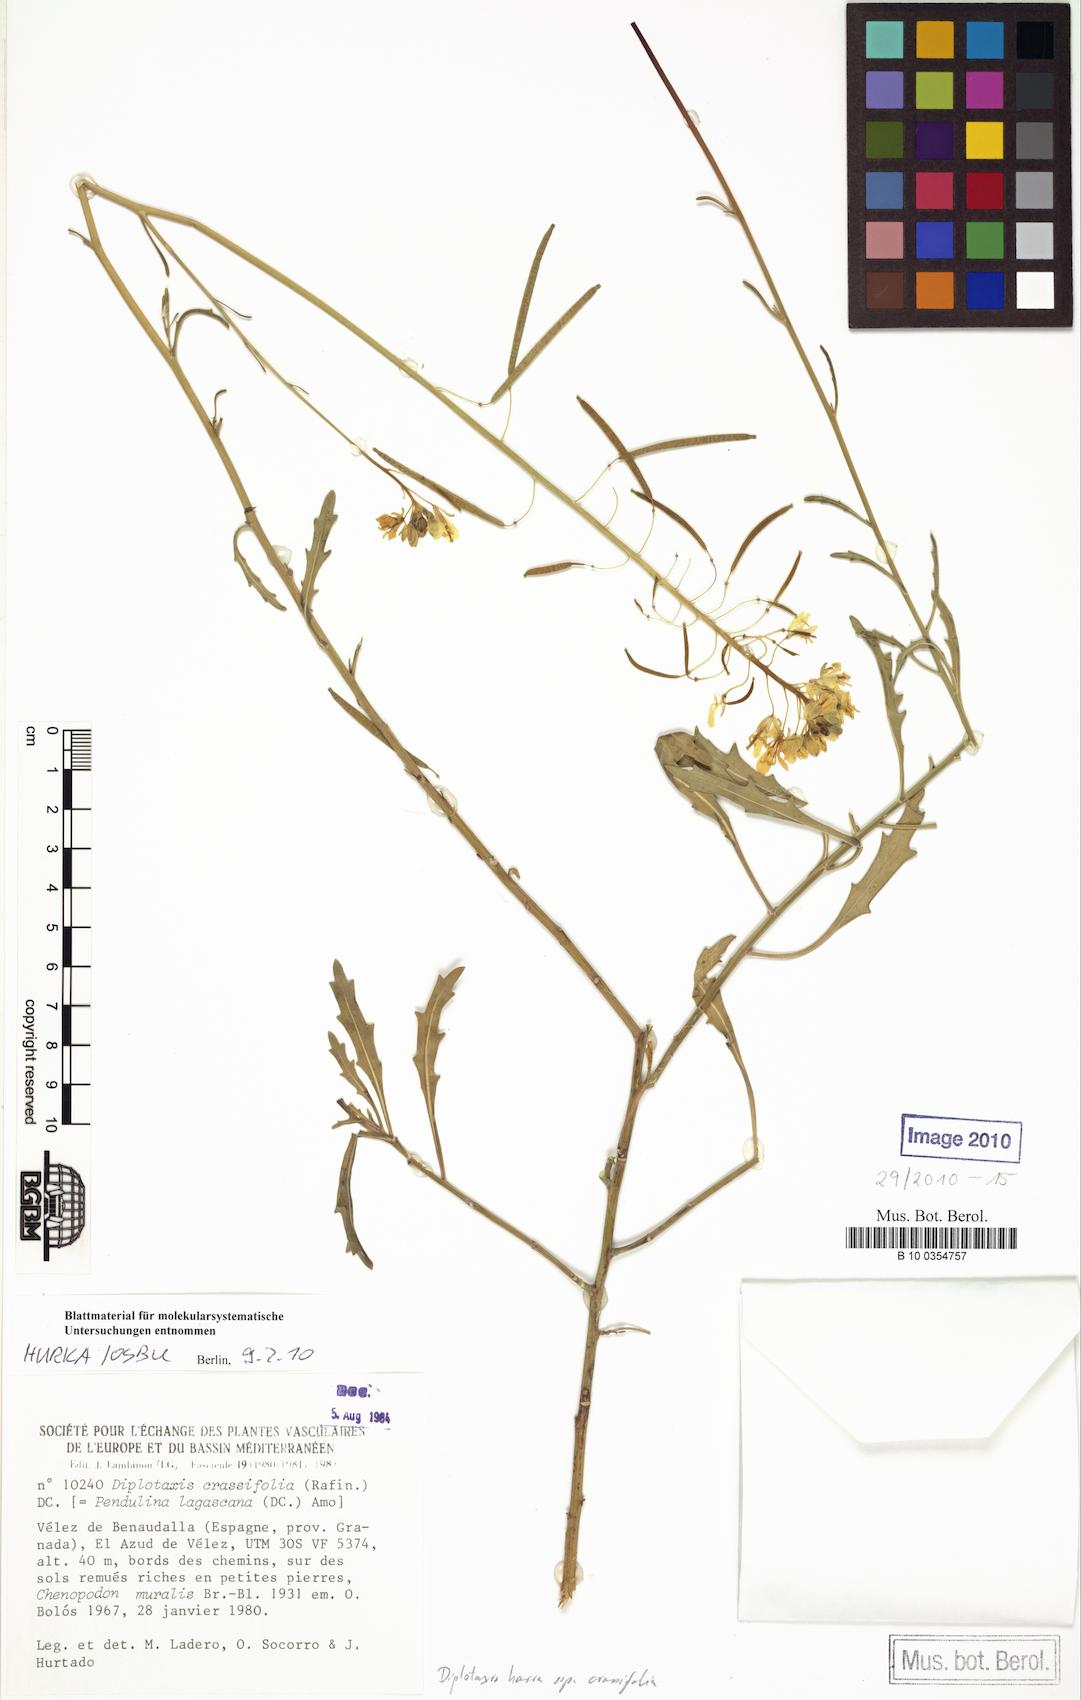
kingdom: Plantae
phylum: Tracheophyta
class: Magnoliopsida
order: Brassicales
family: Brassicaceae
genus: Diplotaxis
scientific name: Diplotaxis harra
